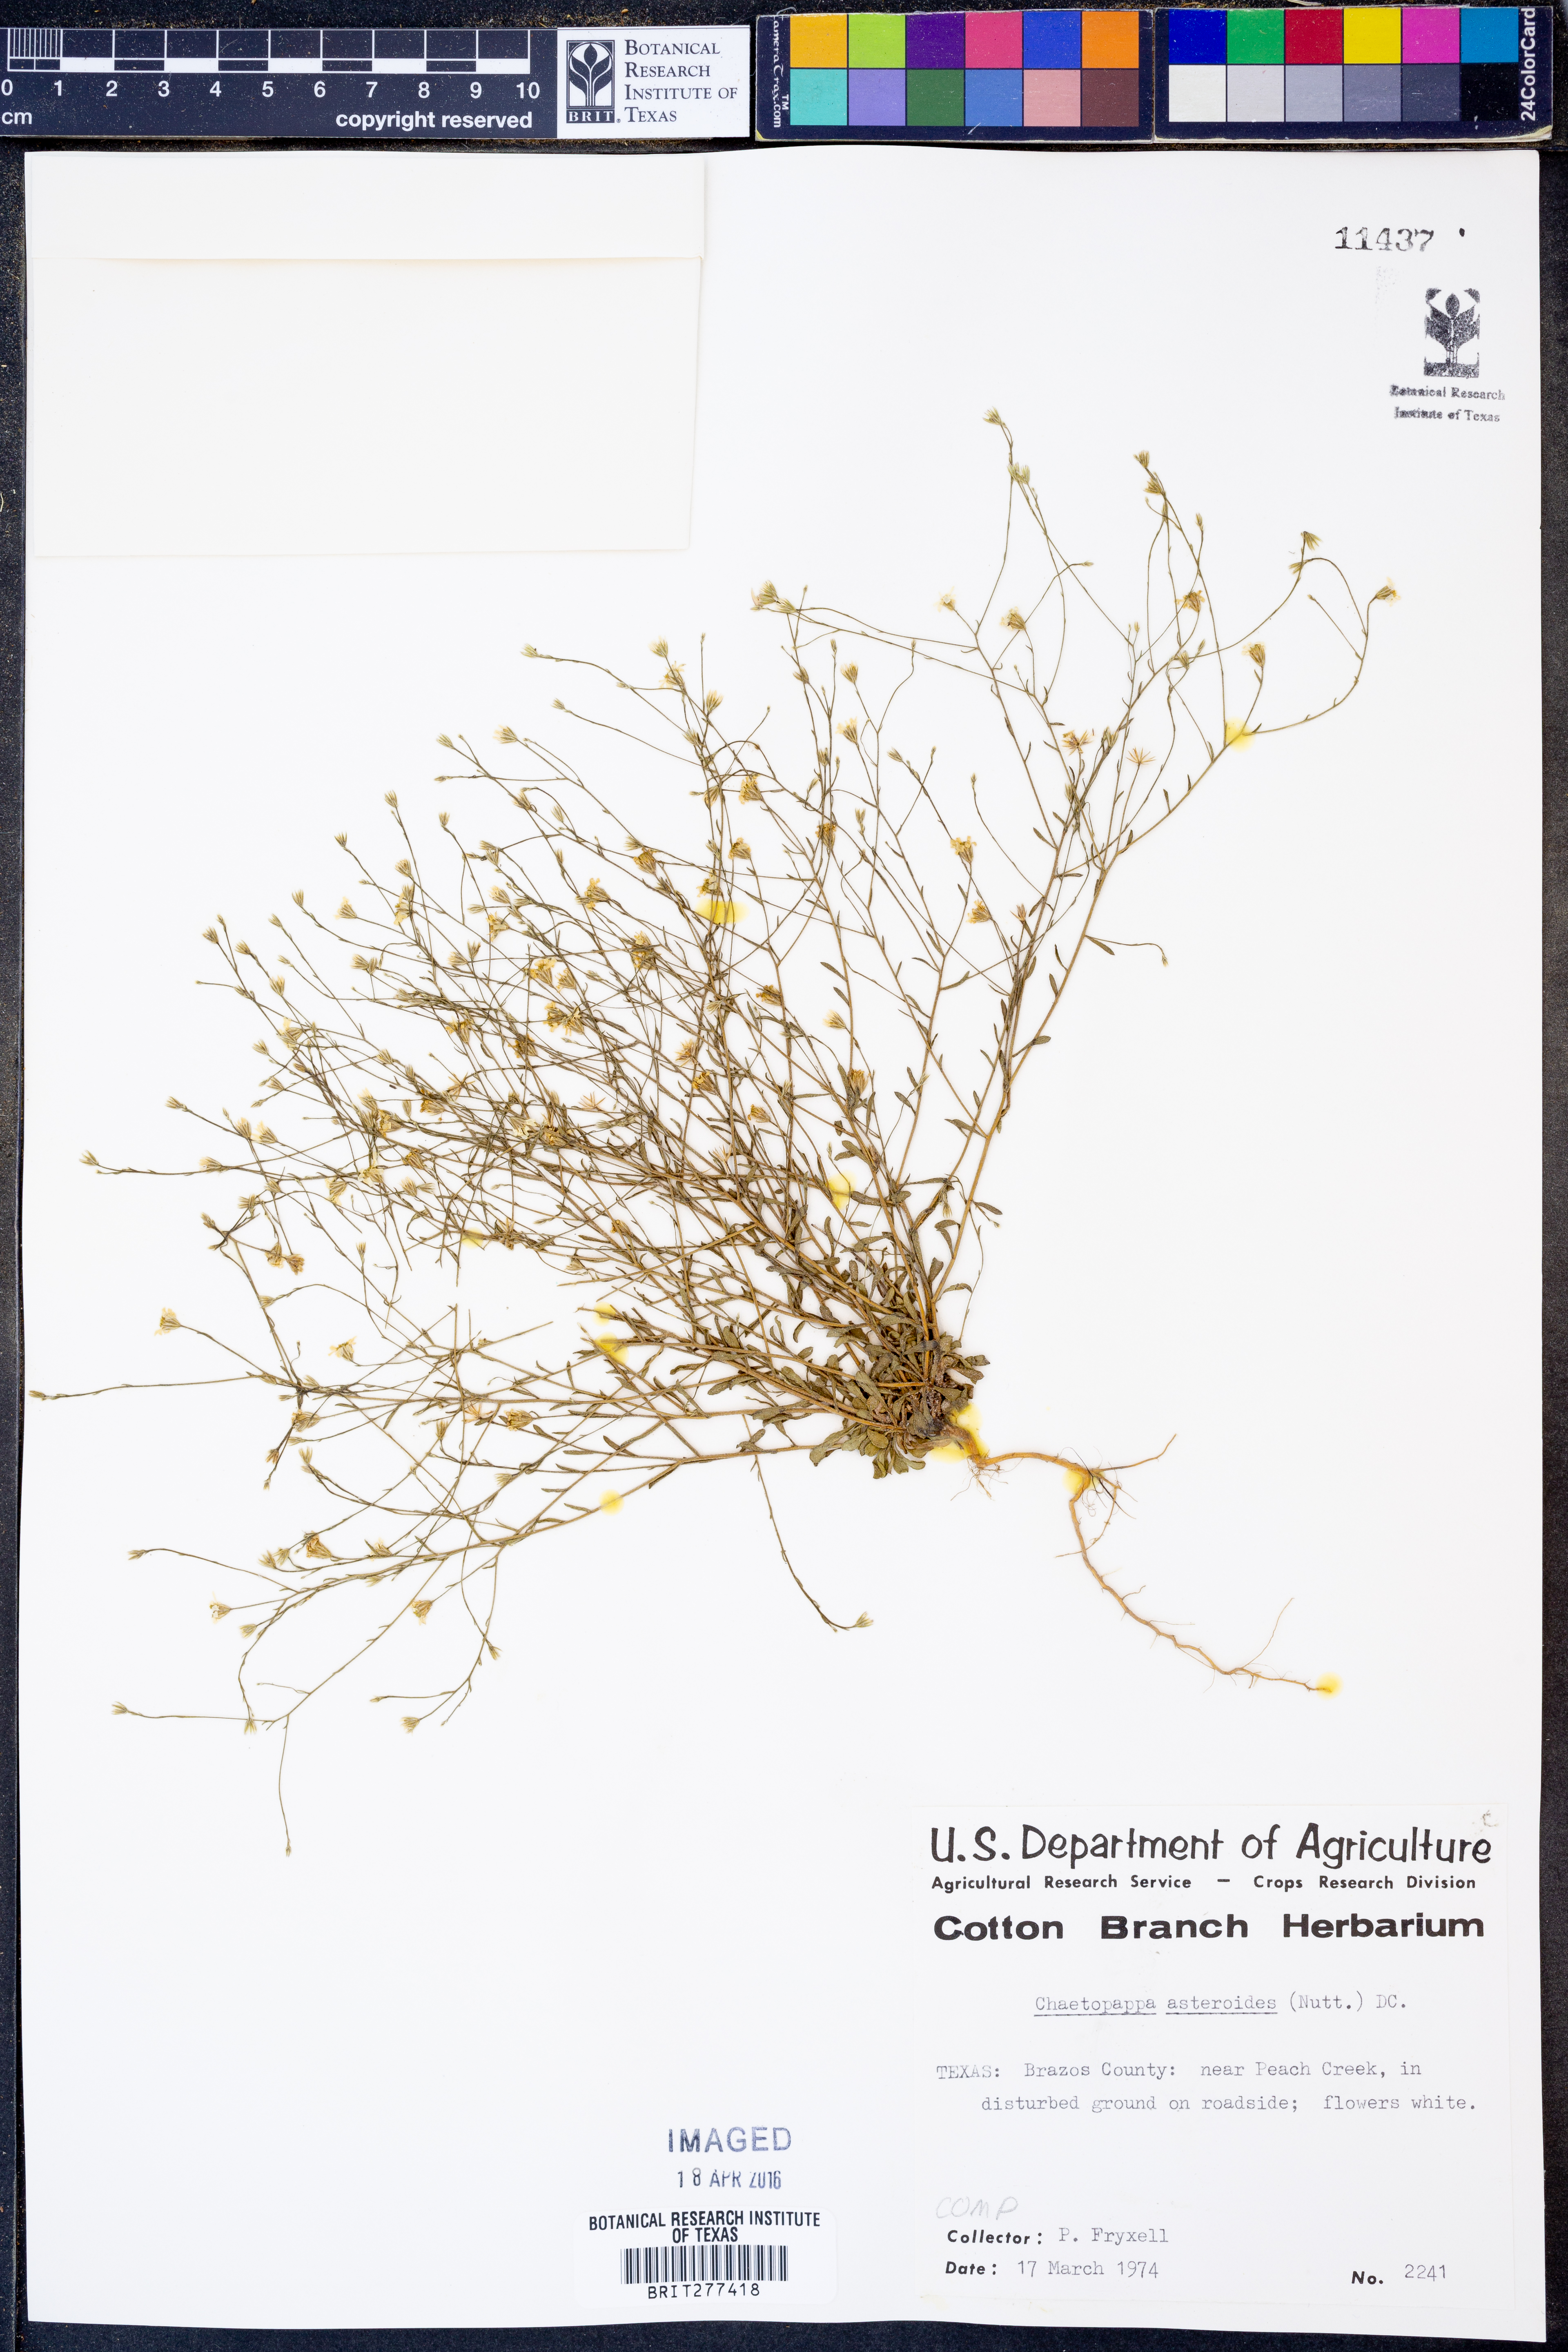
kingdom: Plantae
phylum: Tracheophyta
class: Magnoliopsida
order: Asterales
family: Asteraceae
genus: Chaetopappa
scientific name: Chaetopappa asteroides
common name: Tiny lazy daisy
